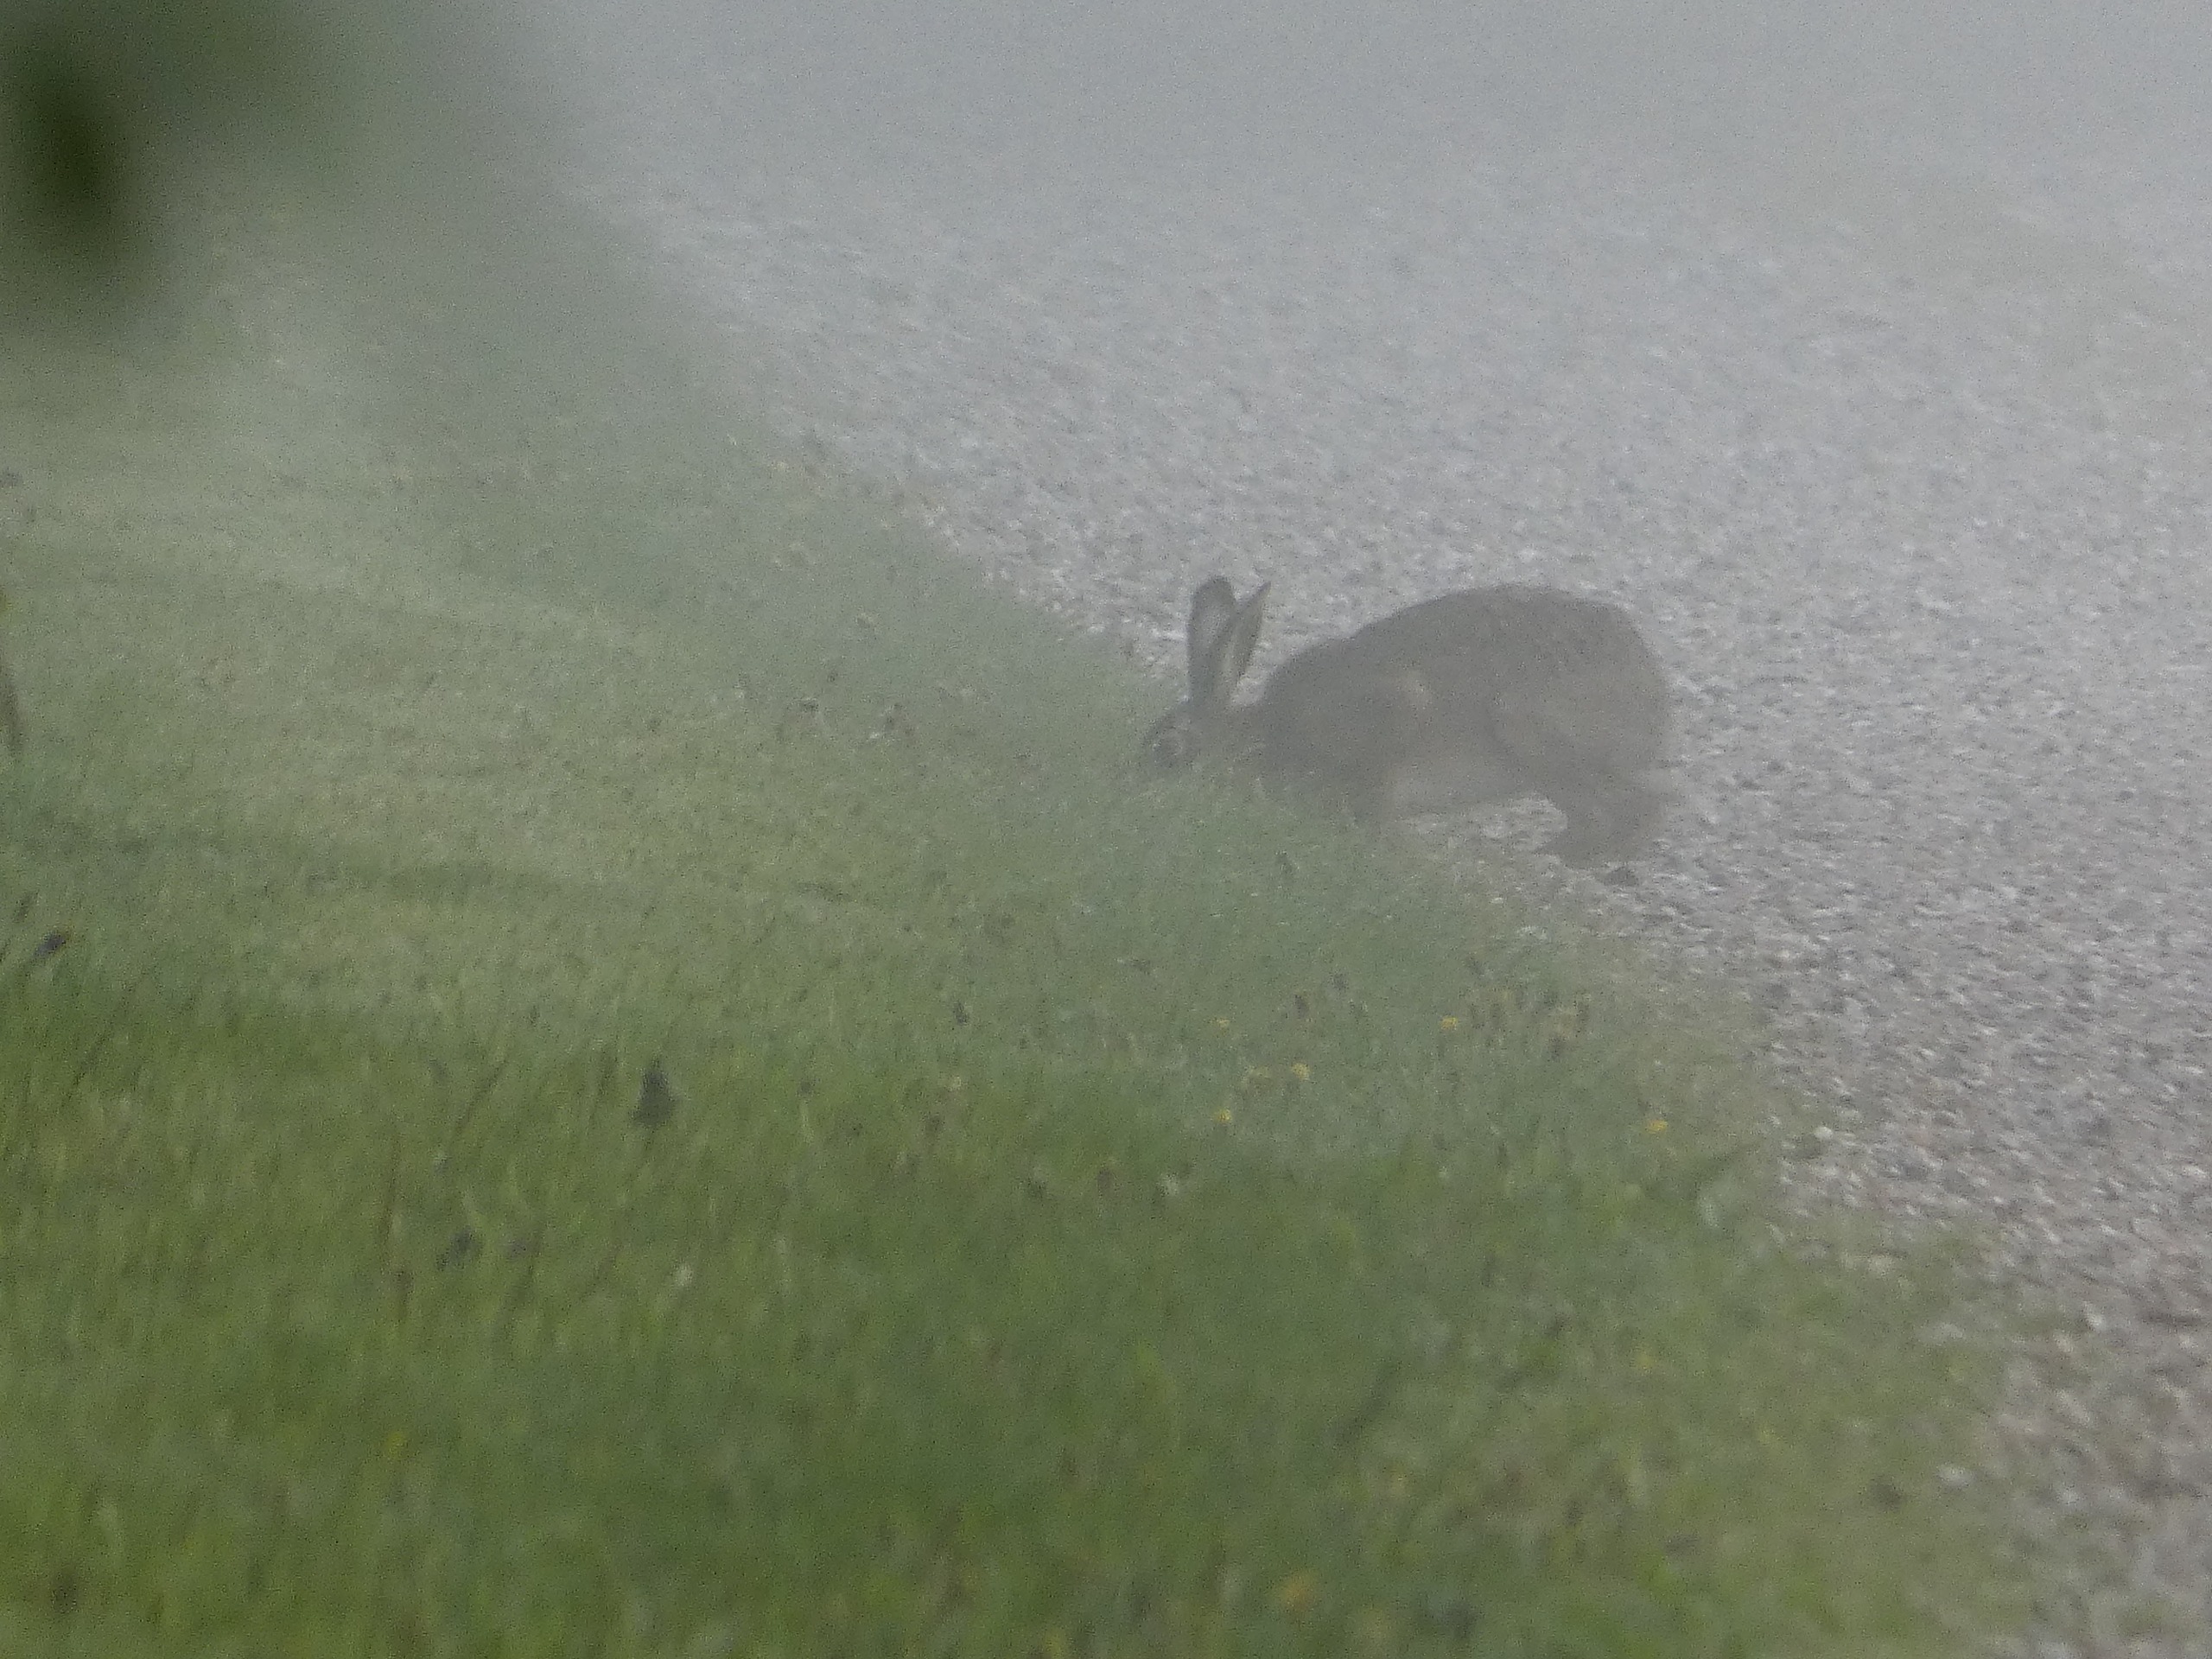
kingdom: Animalia
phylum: Chordata
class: Mammalia
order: Lagomorpha
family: Leporidae
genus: Lepus
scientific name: Lepus europaeus
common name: Hare
